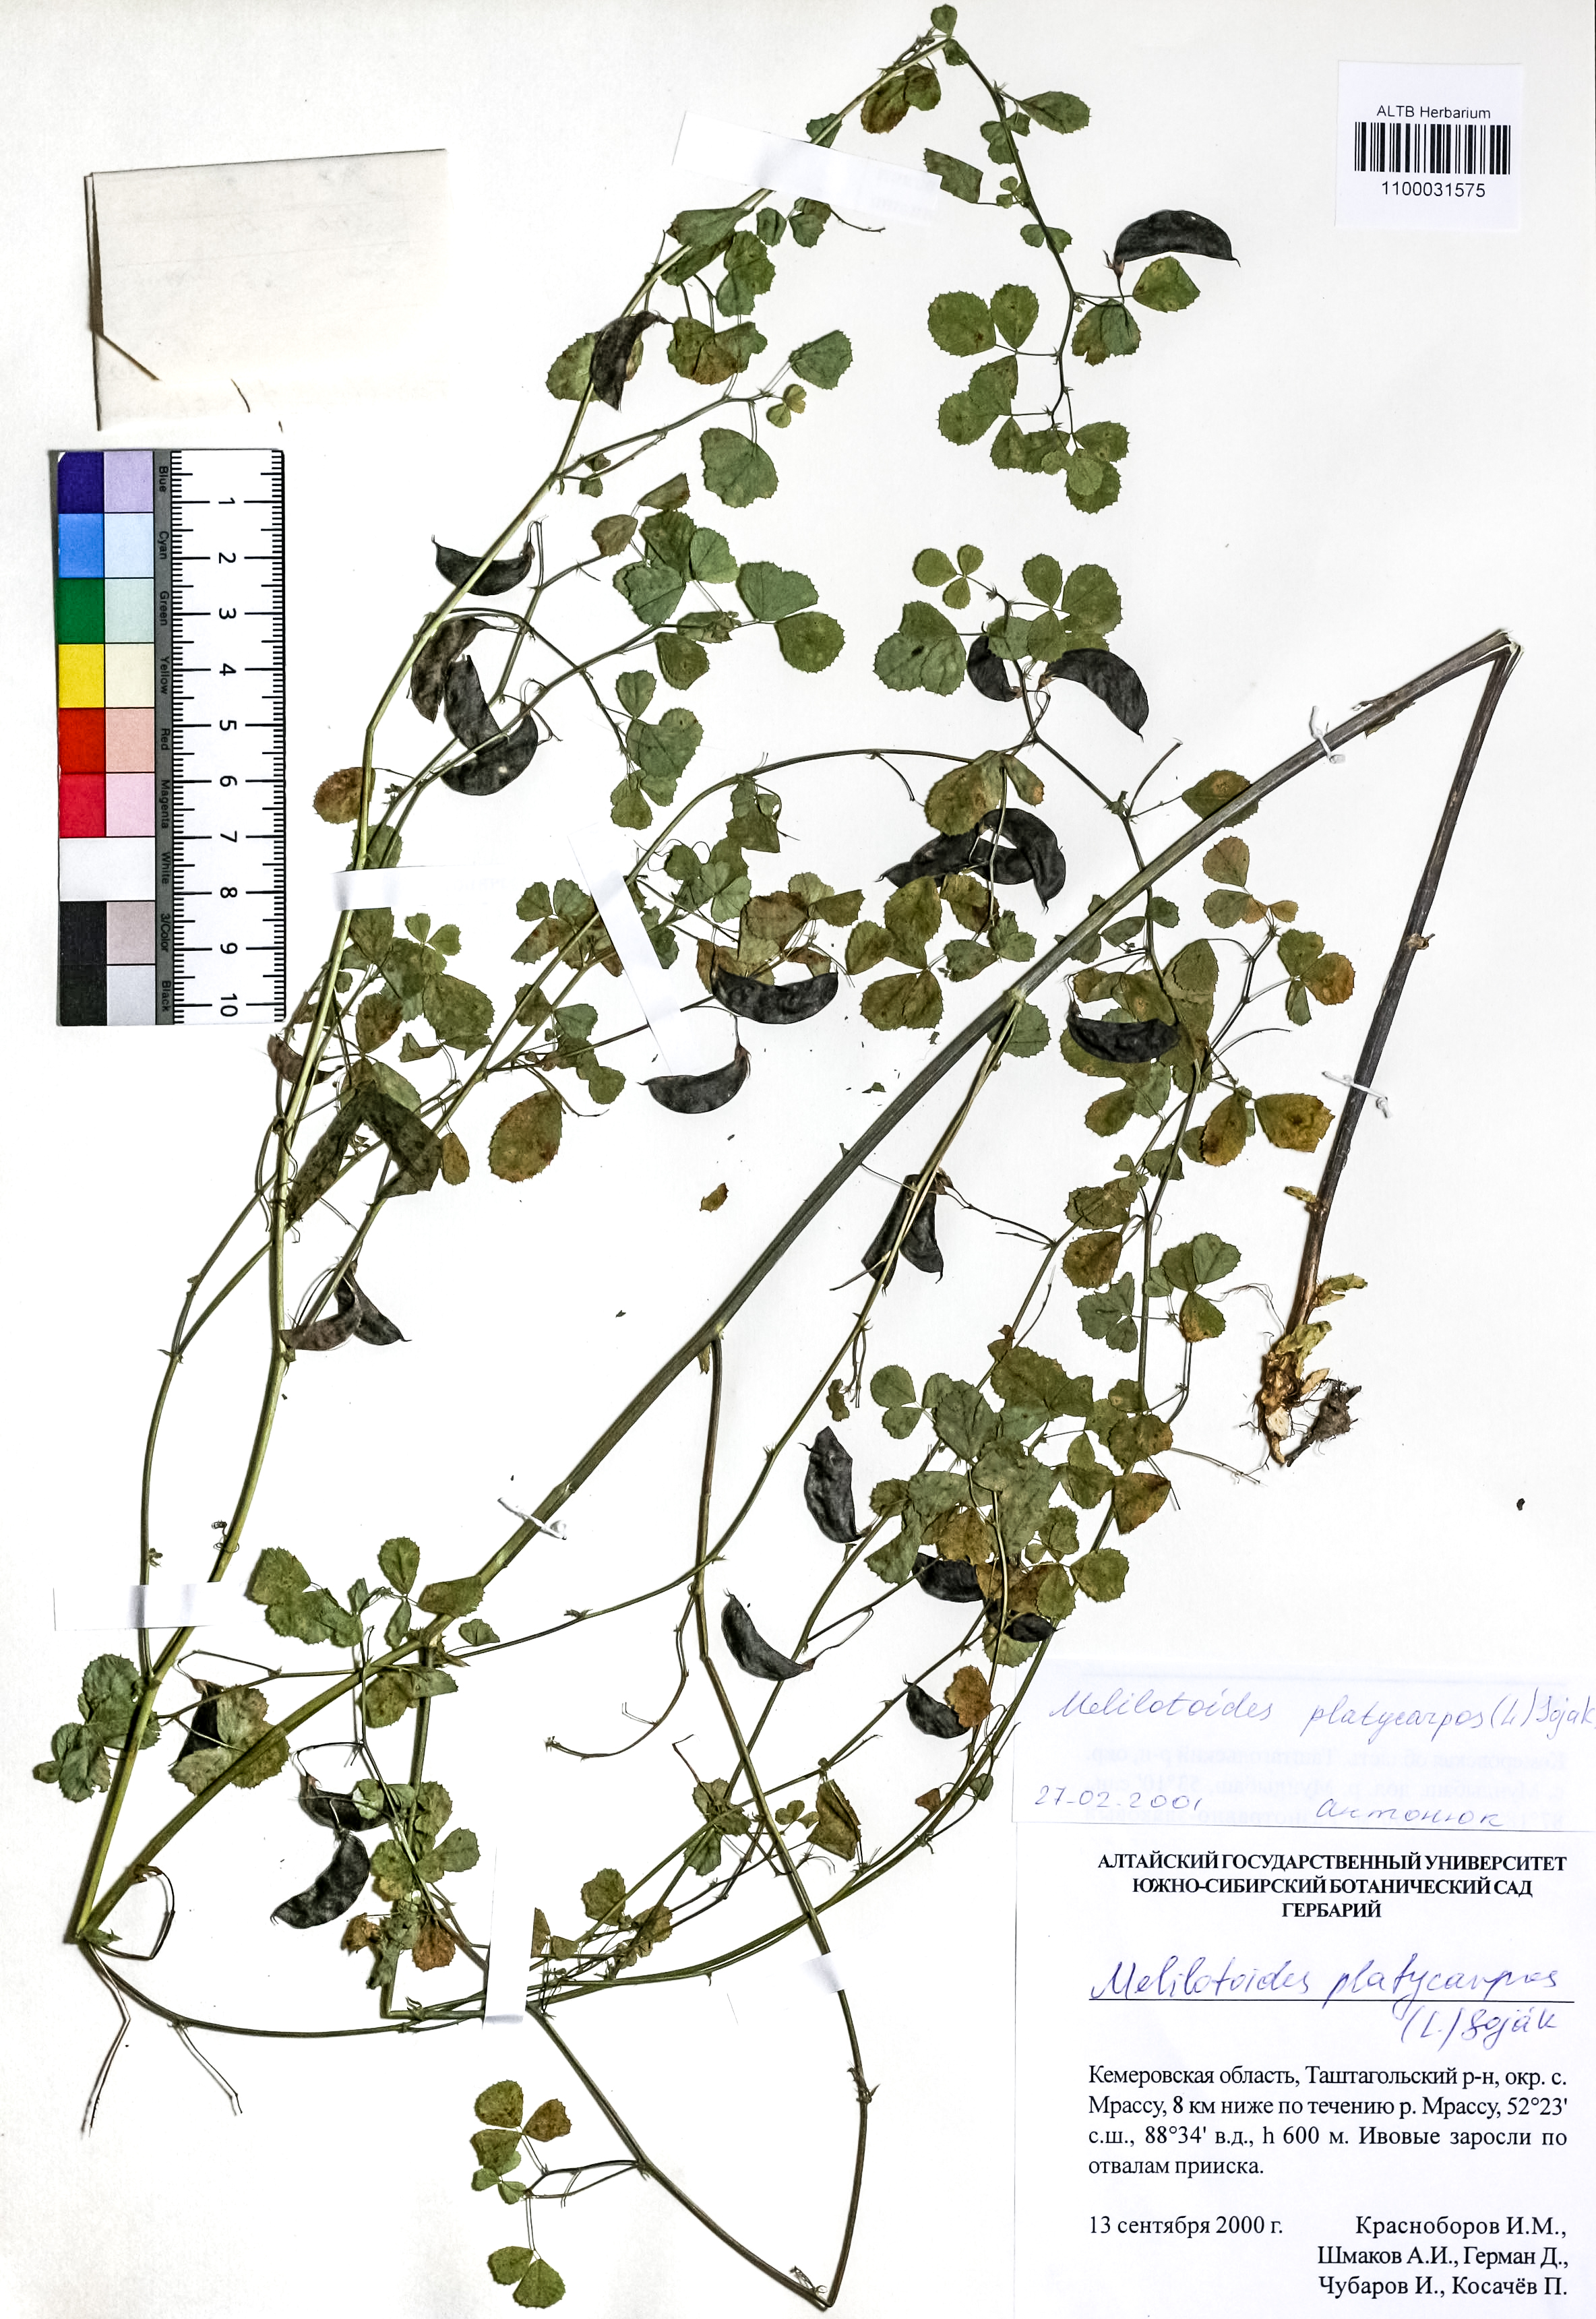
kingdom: Plantae
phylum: Tracheophyta
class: Magnoliopsida
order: Fabales
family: Fabaceae
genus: Medicago
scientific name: Medicago platycarpos
